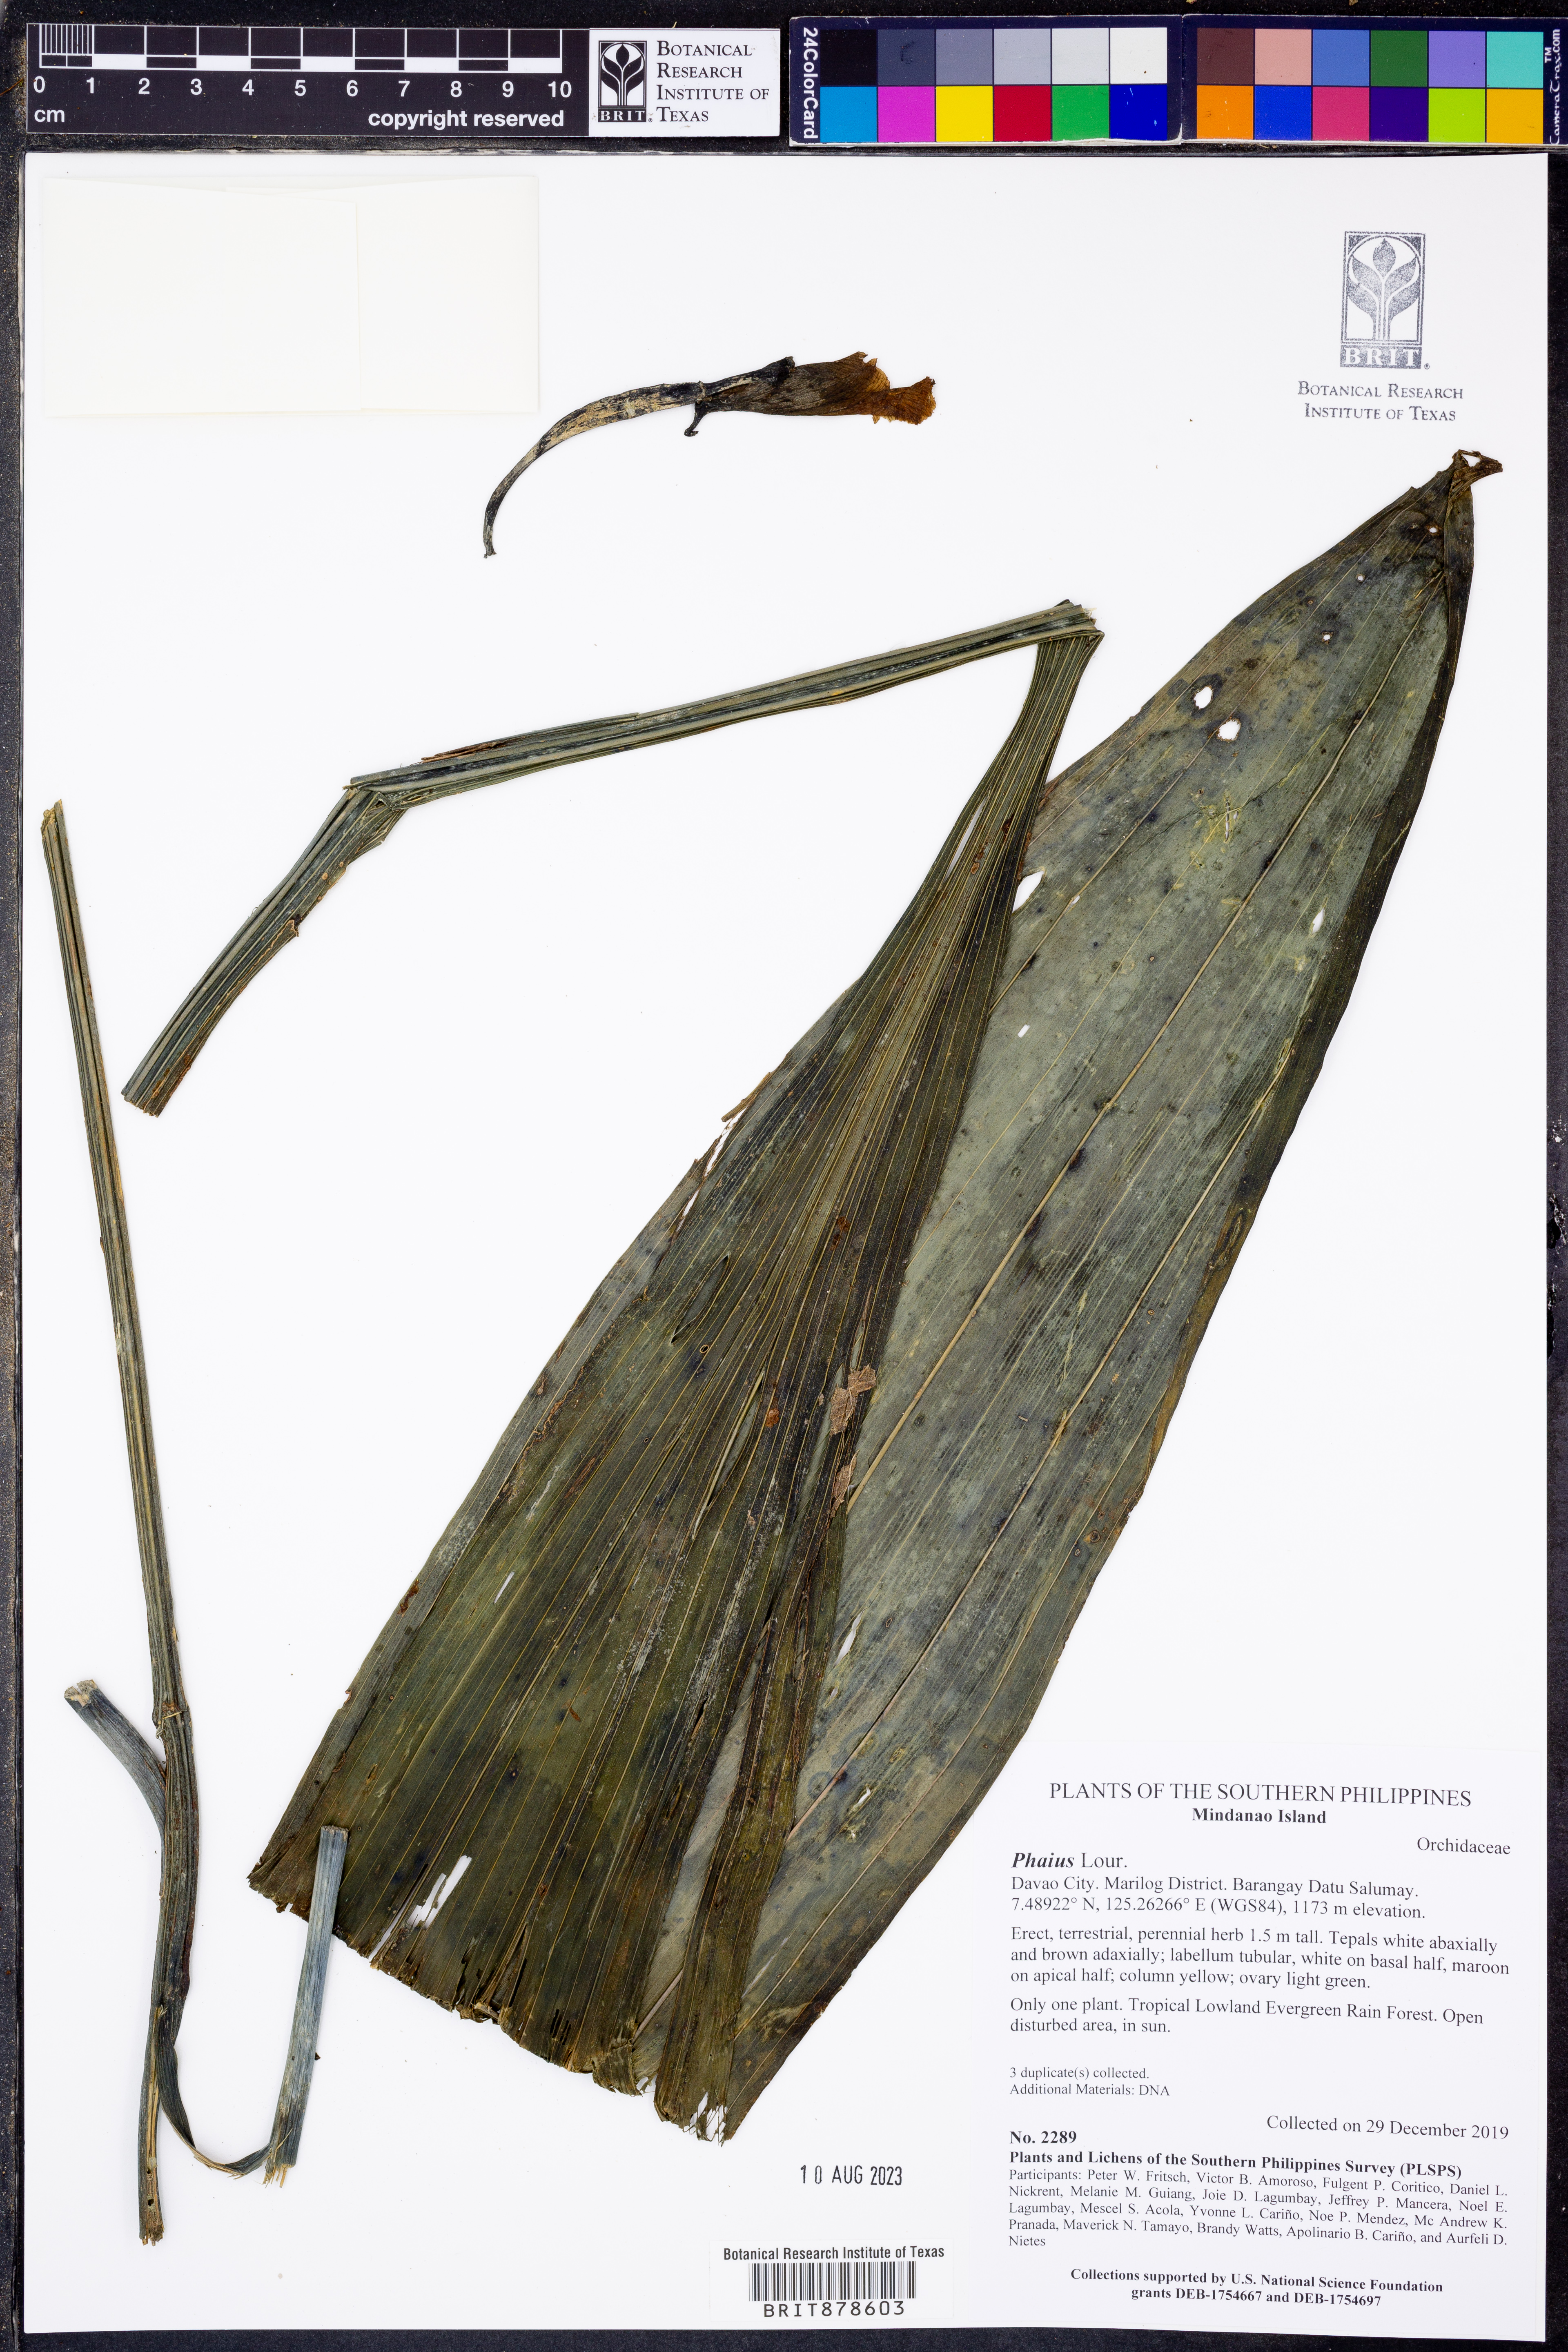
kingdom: Plantae
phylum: Tracheophyta
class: Liliopsida
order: Asparagales
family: Orchidaceae
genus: Calanthe
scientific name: Calanthe
